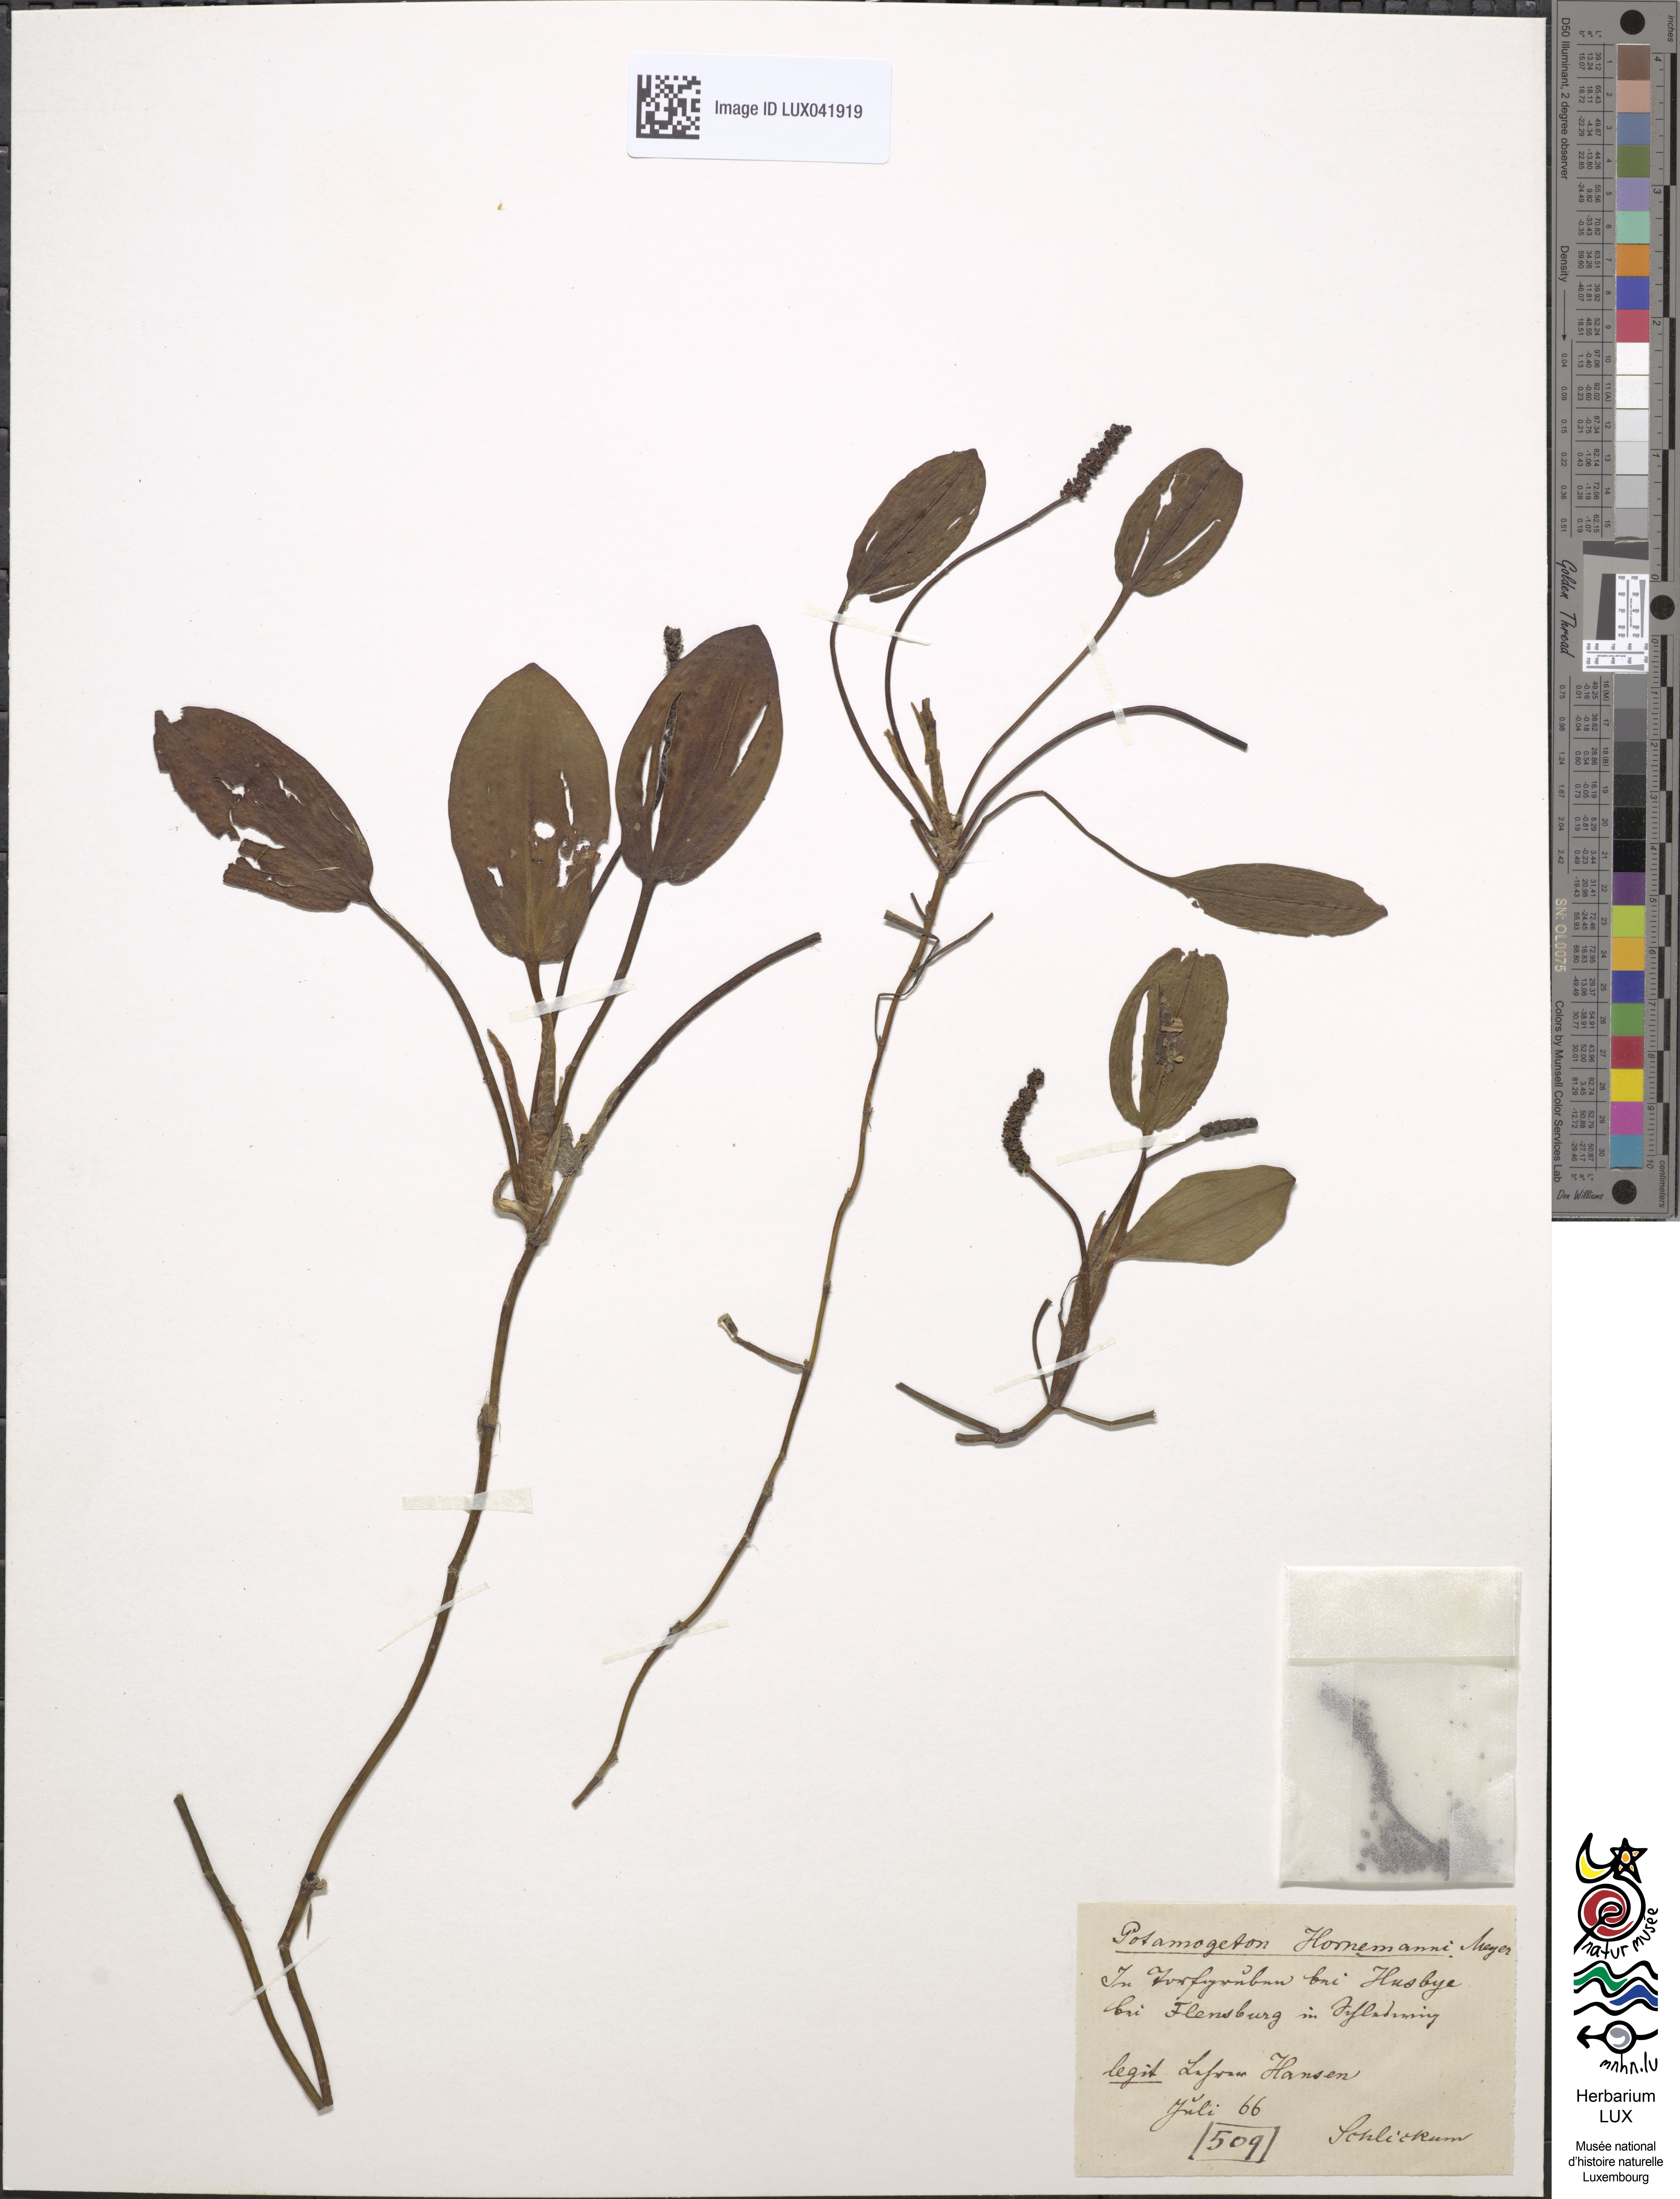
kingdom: Plantae
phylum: Tracheophyta
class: Liliopsida
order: Alismatales
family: Potamogetonaceae
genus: Potamogeton
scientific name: Potamogeton coloratus
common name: Fen pondweed
